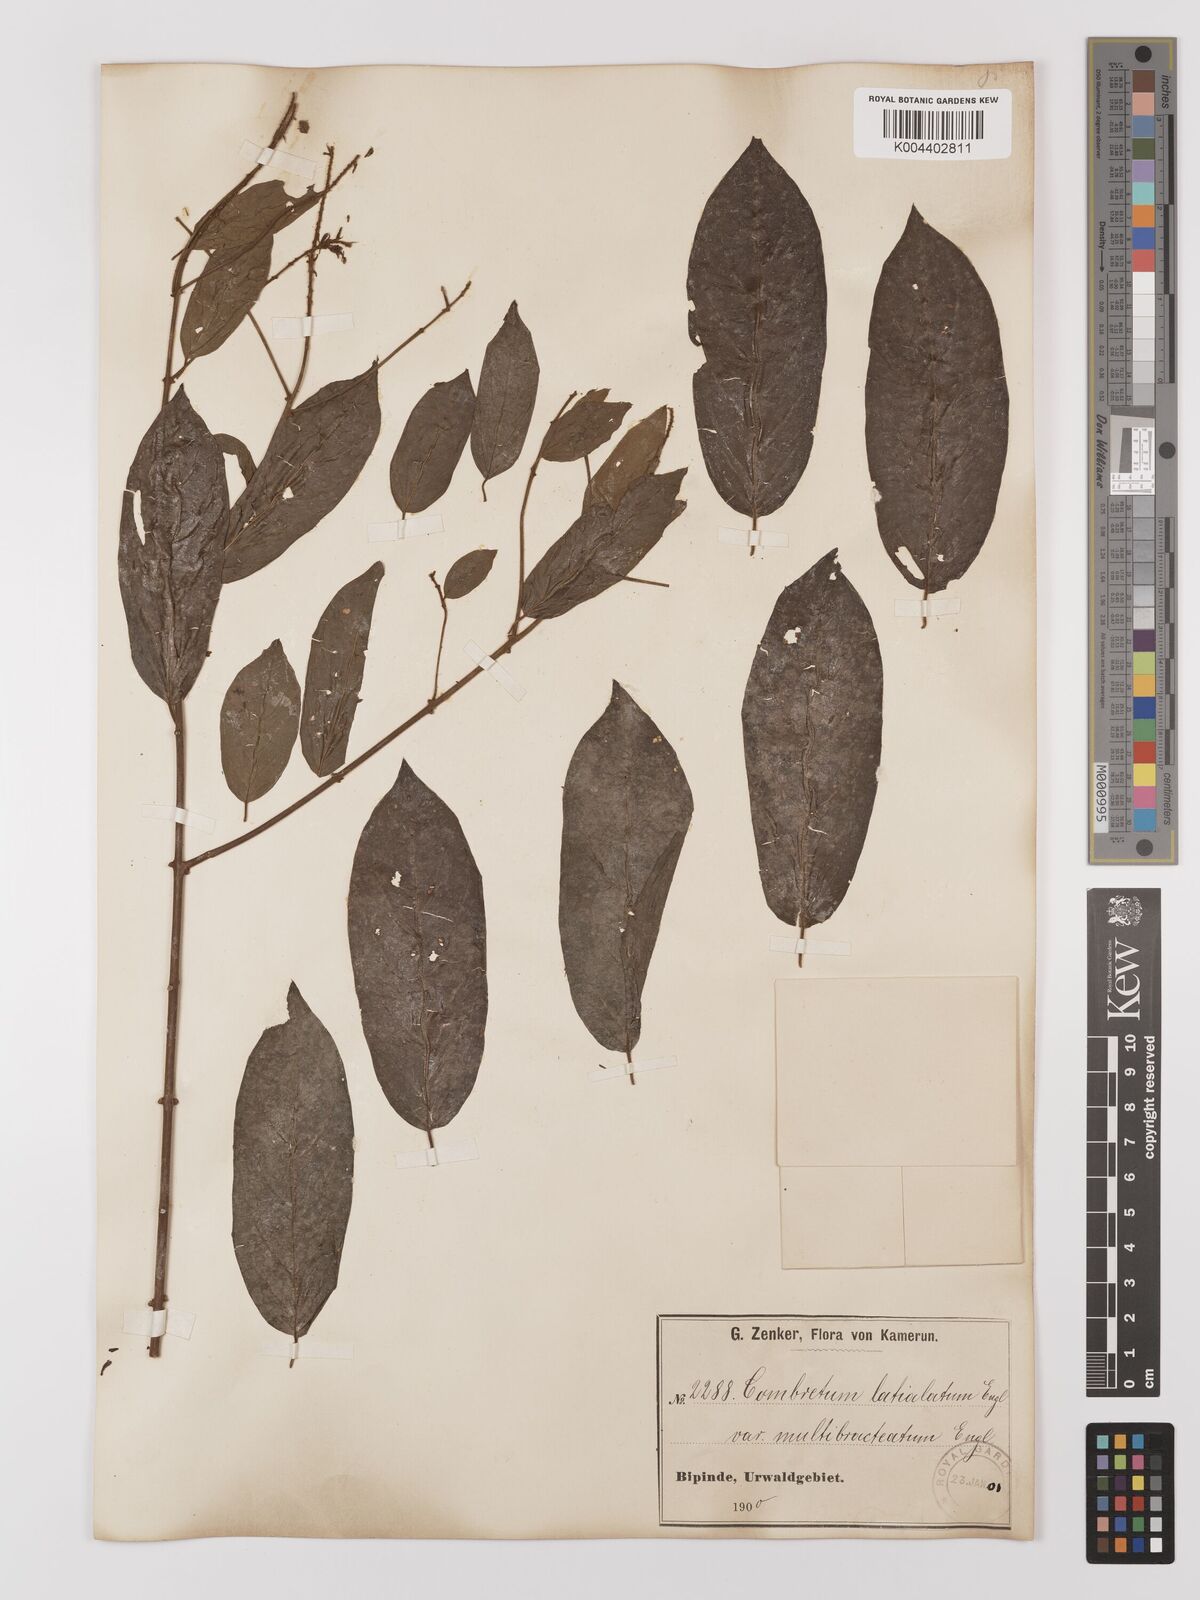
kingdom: Plantae
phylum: Tracheophyta
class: Magnoliopsida
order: Myrtales
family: Combretaceae
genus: Combretum
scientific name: Combretum latialatum
